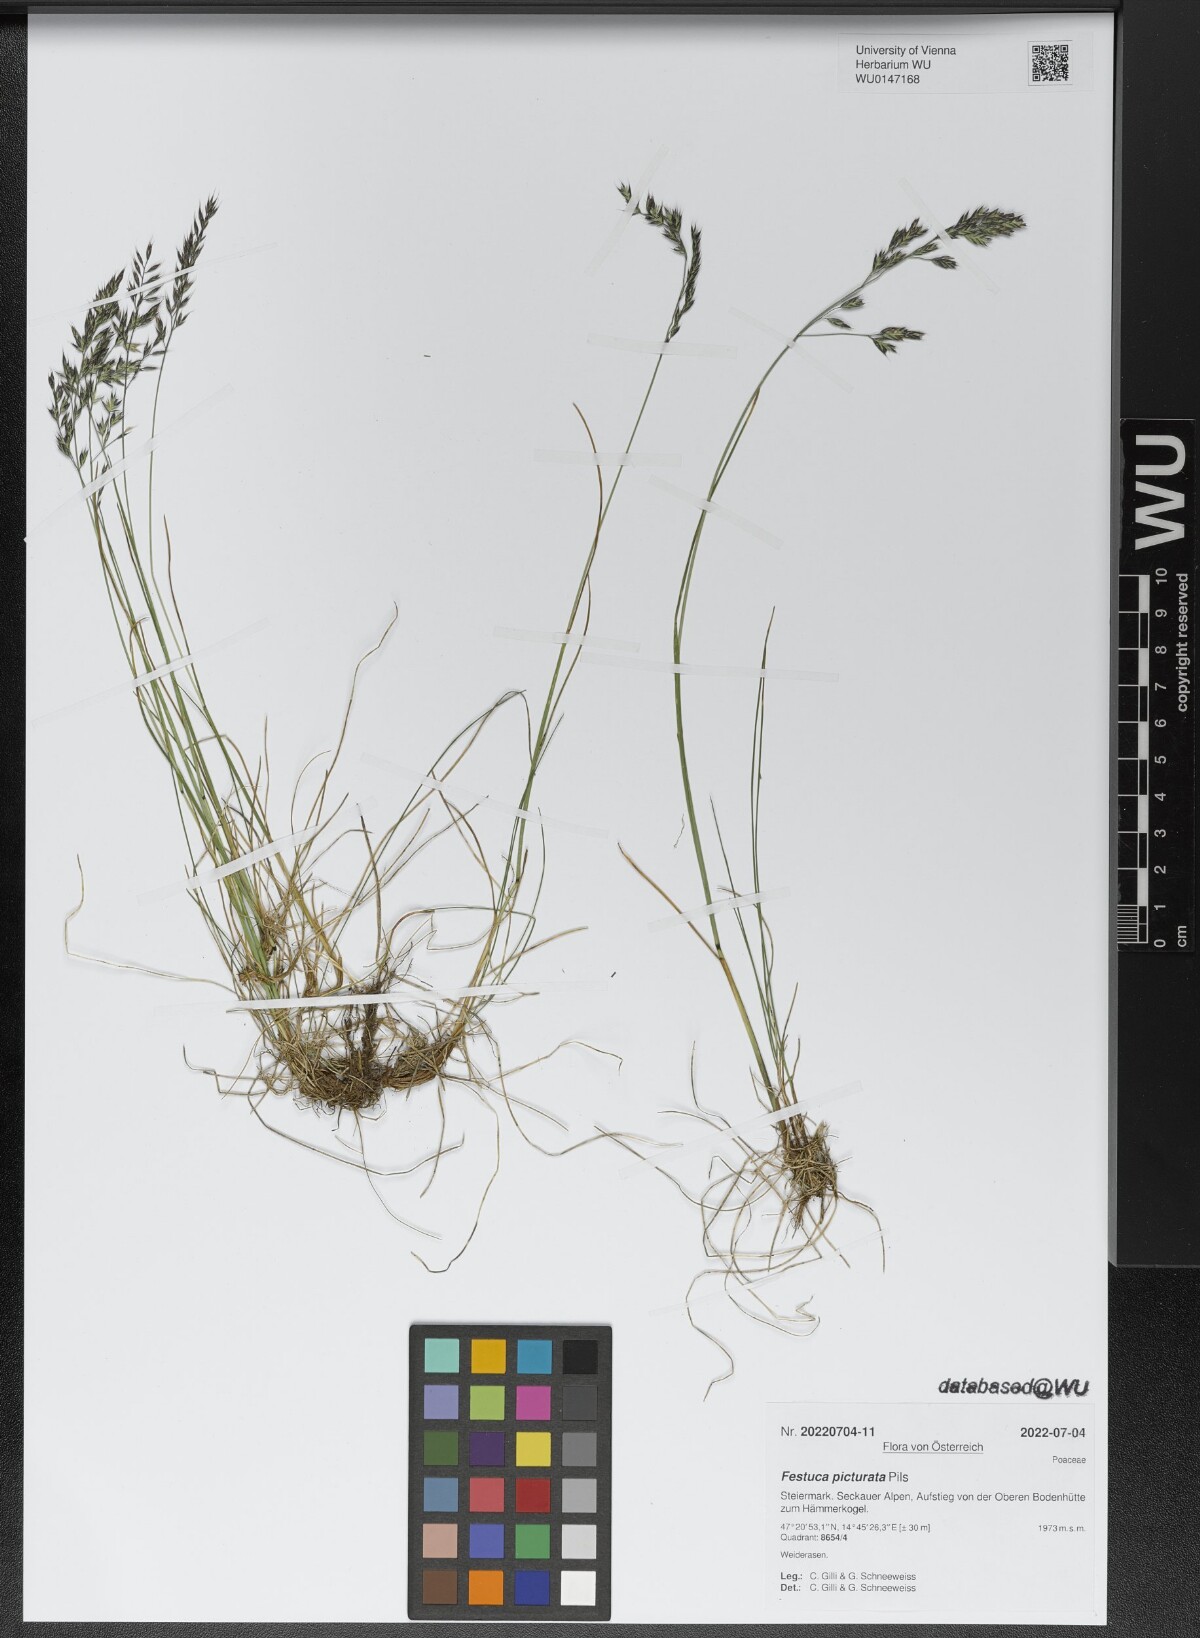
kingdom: Plantae
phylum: Tracheophyta
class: Liliopsida
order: Poales
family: Poaceae
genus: Festuca
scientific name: Festuca picturata
